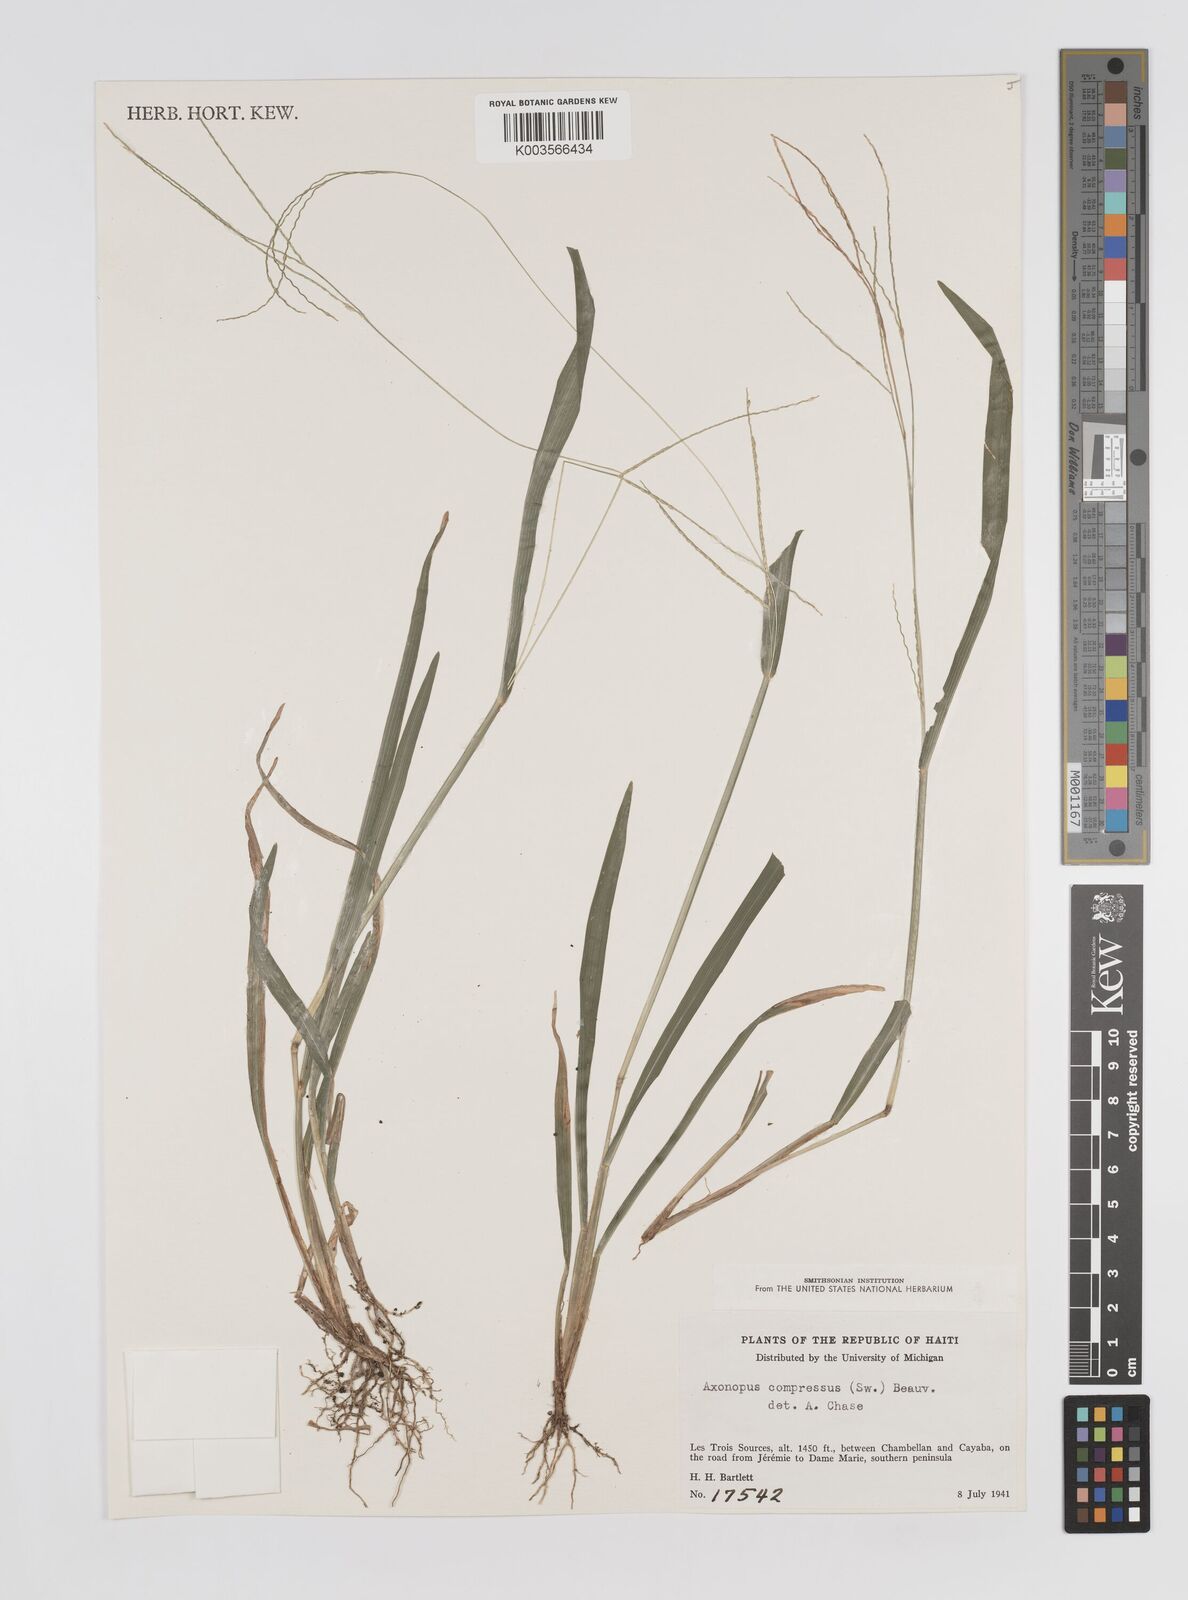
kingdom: Plantae
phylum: Tracheophyta
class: Liliopsida
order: Poales
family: Poaceae
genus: Axonopus
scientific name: Axonopus compressus
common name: American carpet grass
